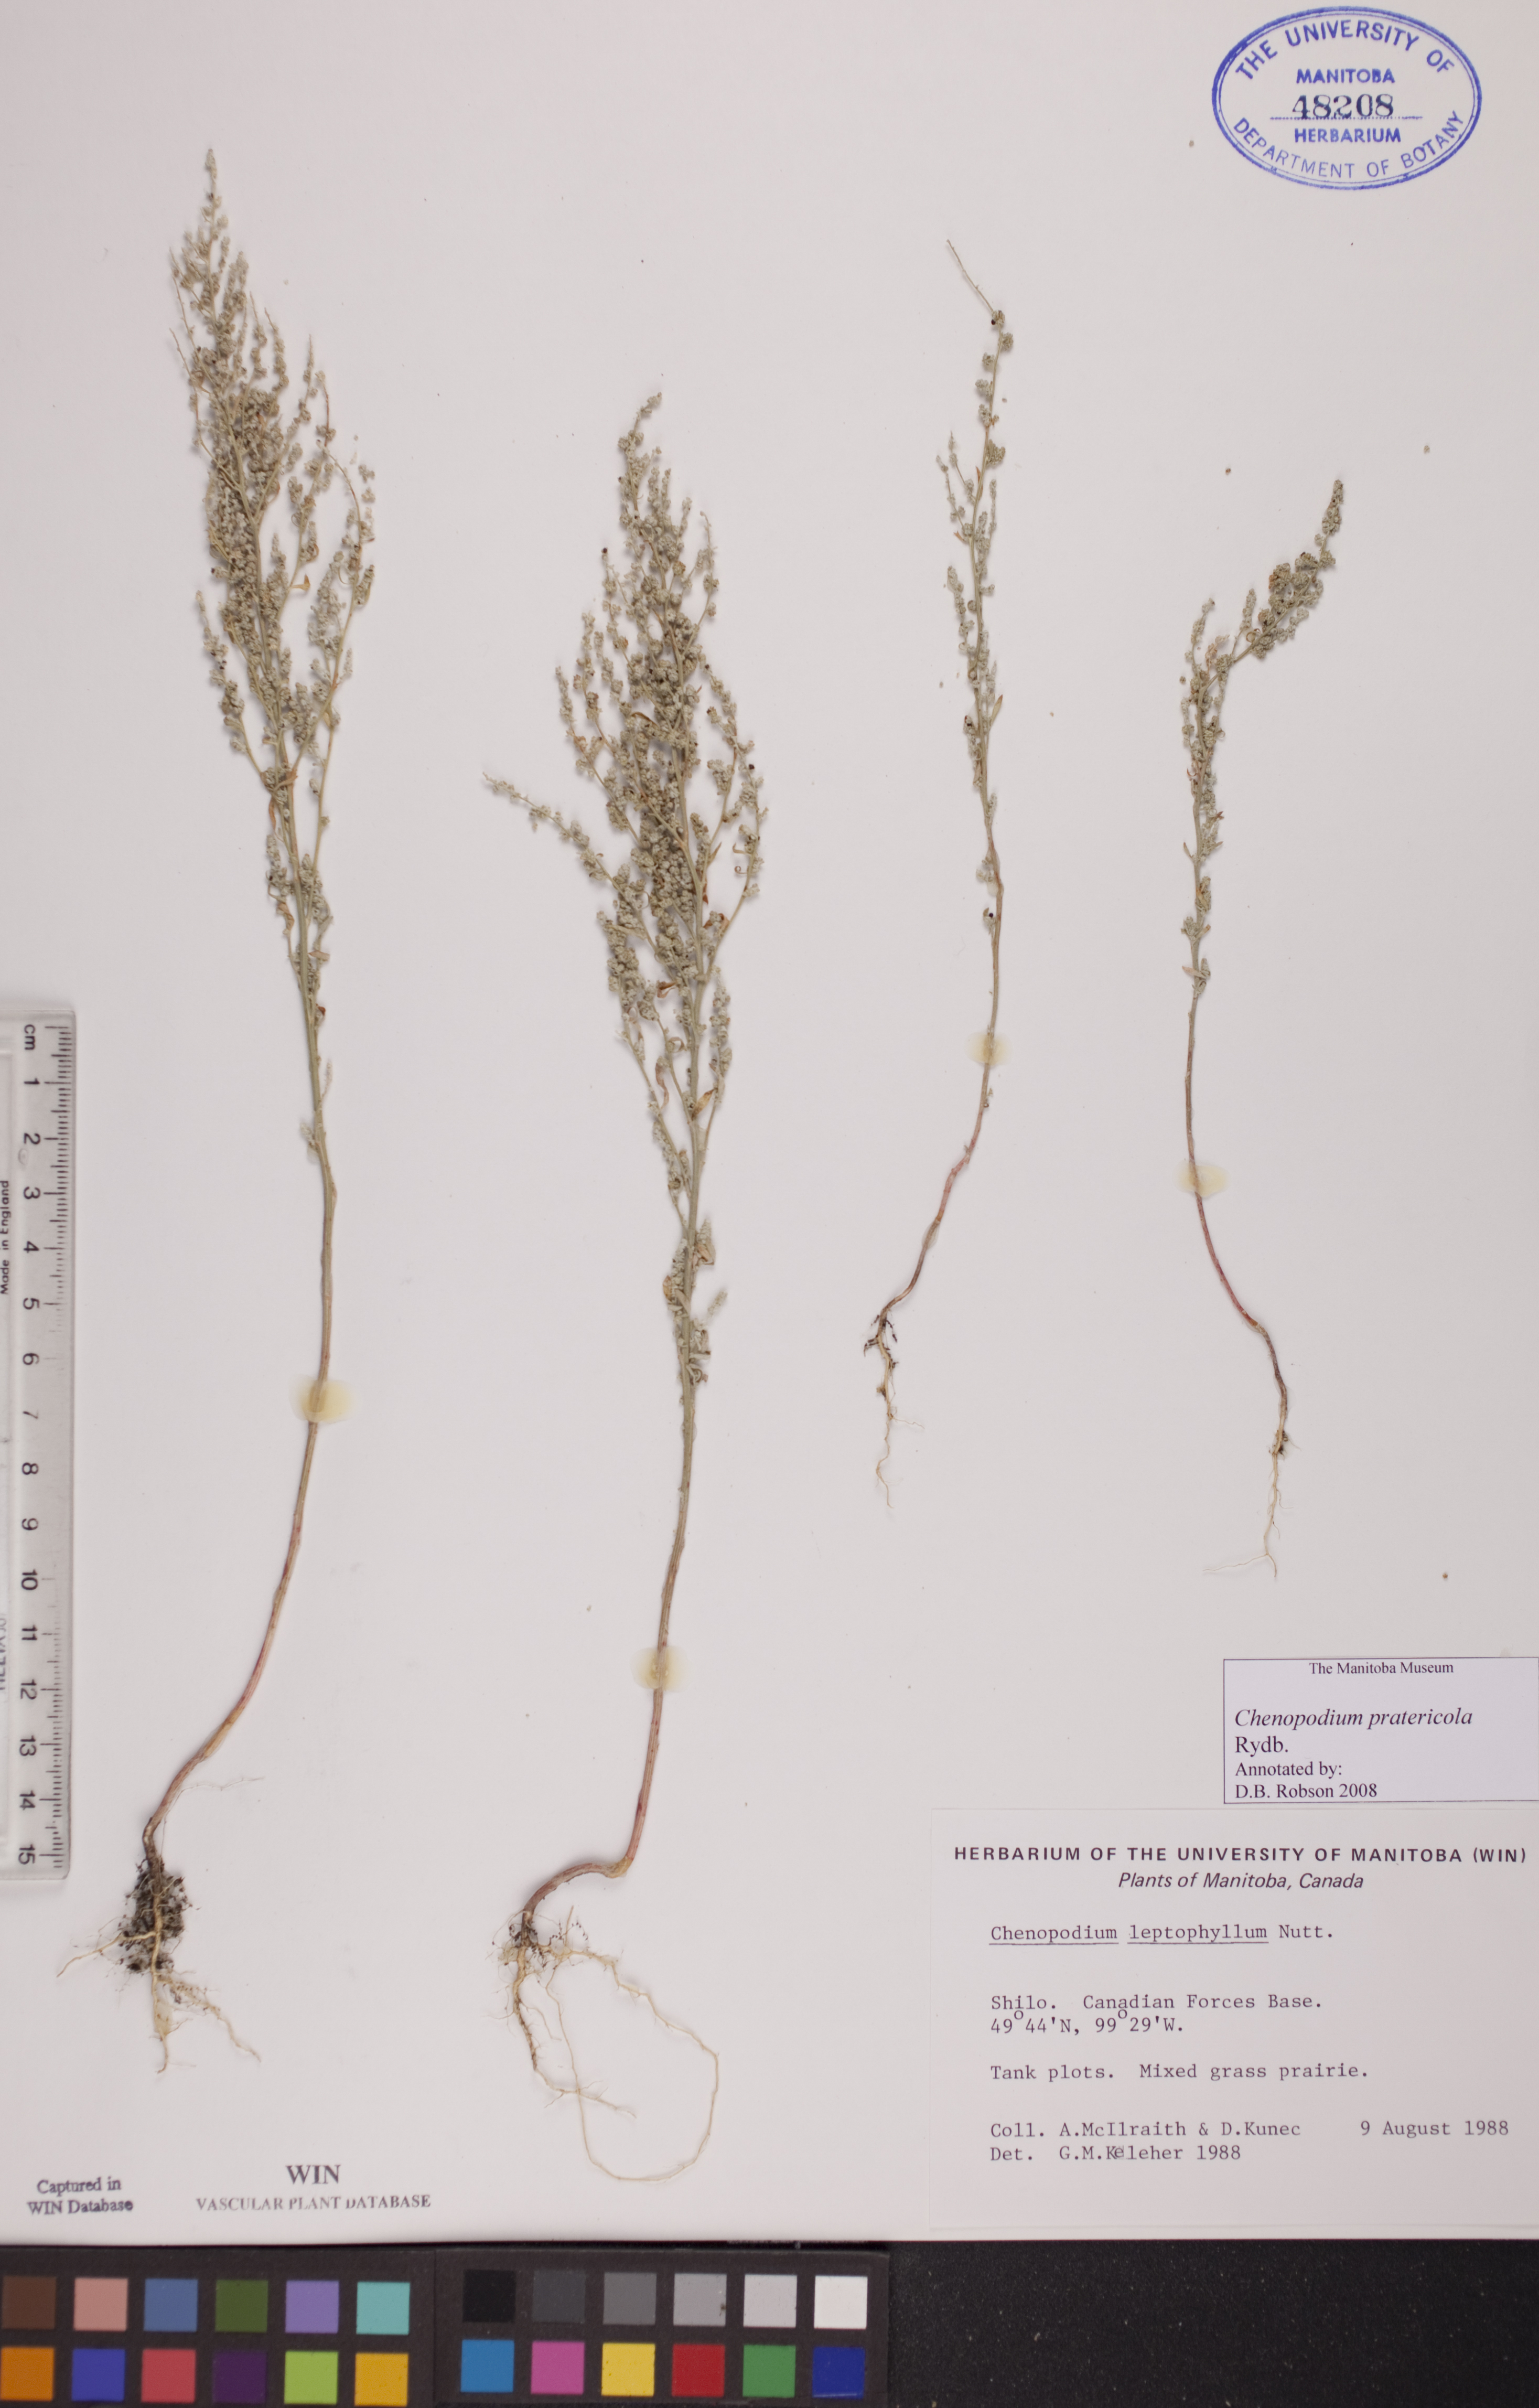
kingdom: Plantae
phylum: Tracheophyta
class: Magnoliopsida
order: Caryophyllales
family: Amaranthaceae
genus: Chenopodium
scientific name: Chenopodium pratericola
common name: Desert goosefoot
